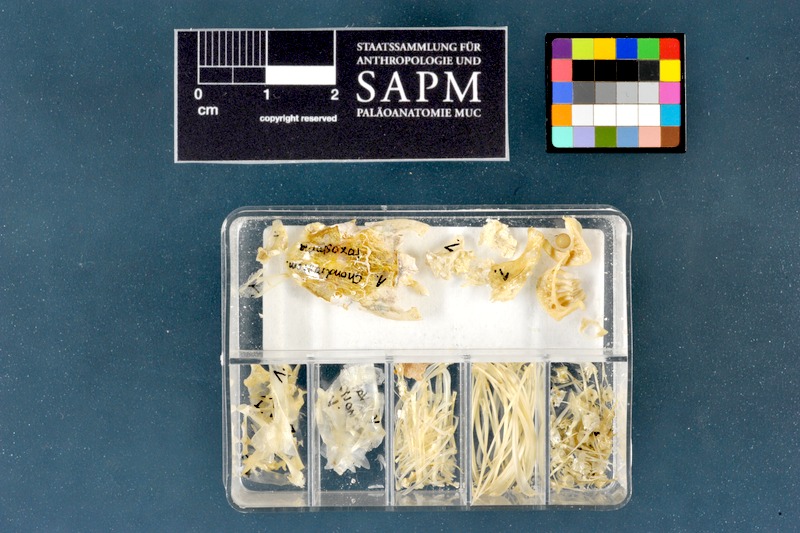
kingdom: Animalia
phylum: Chordata
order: Cypriniformes
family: Cyprinidae
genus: Parachondrostoma
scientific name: Parachondrostoma toxostoma
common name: Toxostome
